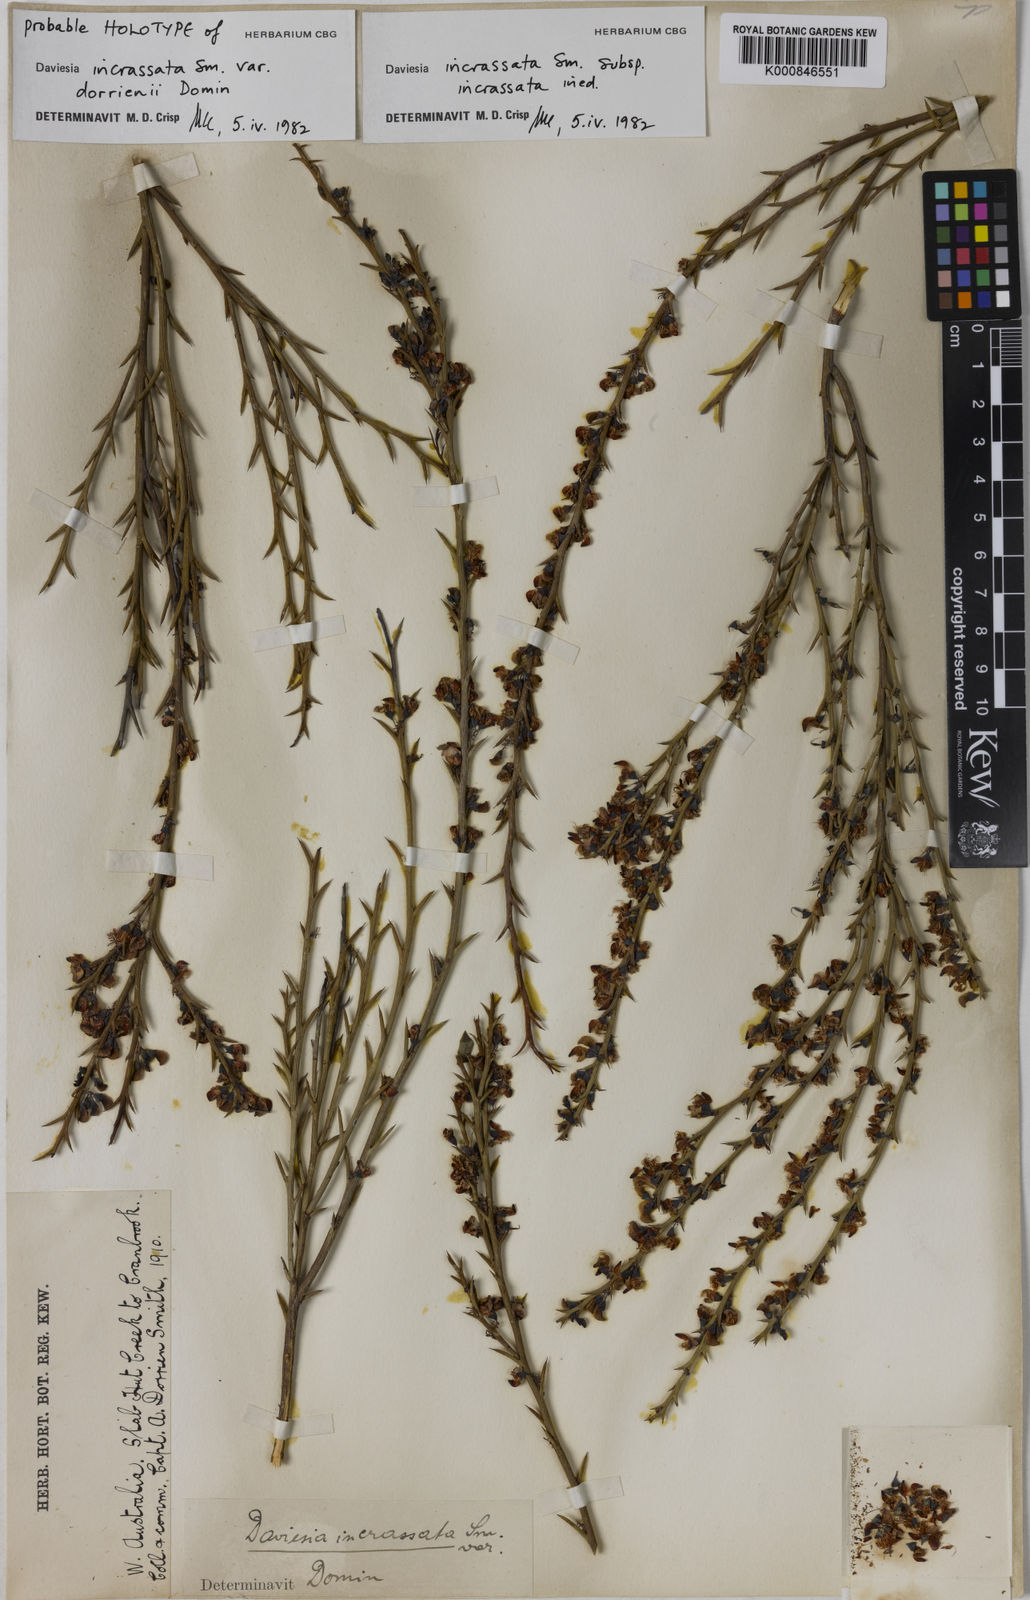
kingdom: Plantae
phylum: Tracheophyta
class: Magnoliopsida
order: Fabales
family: Fabaceae
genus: Daviesia
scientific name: Daviesia incrassata
